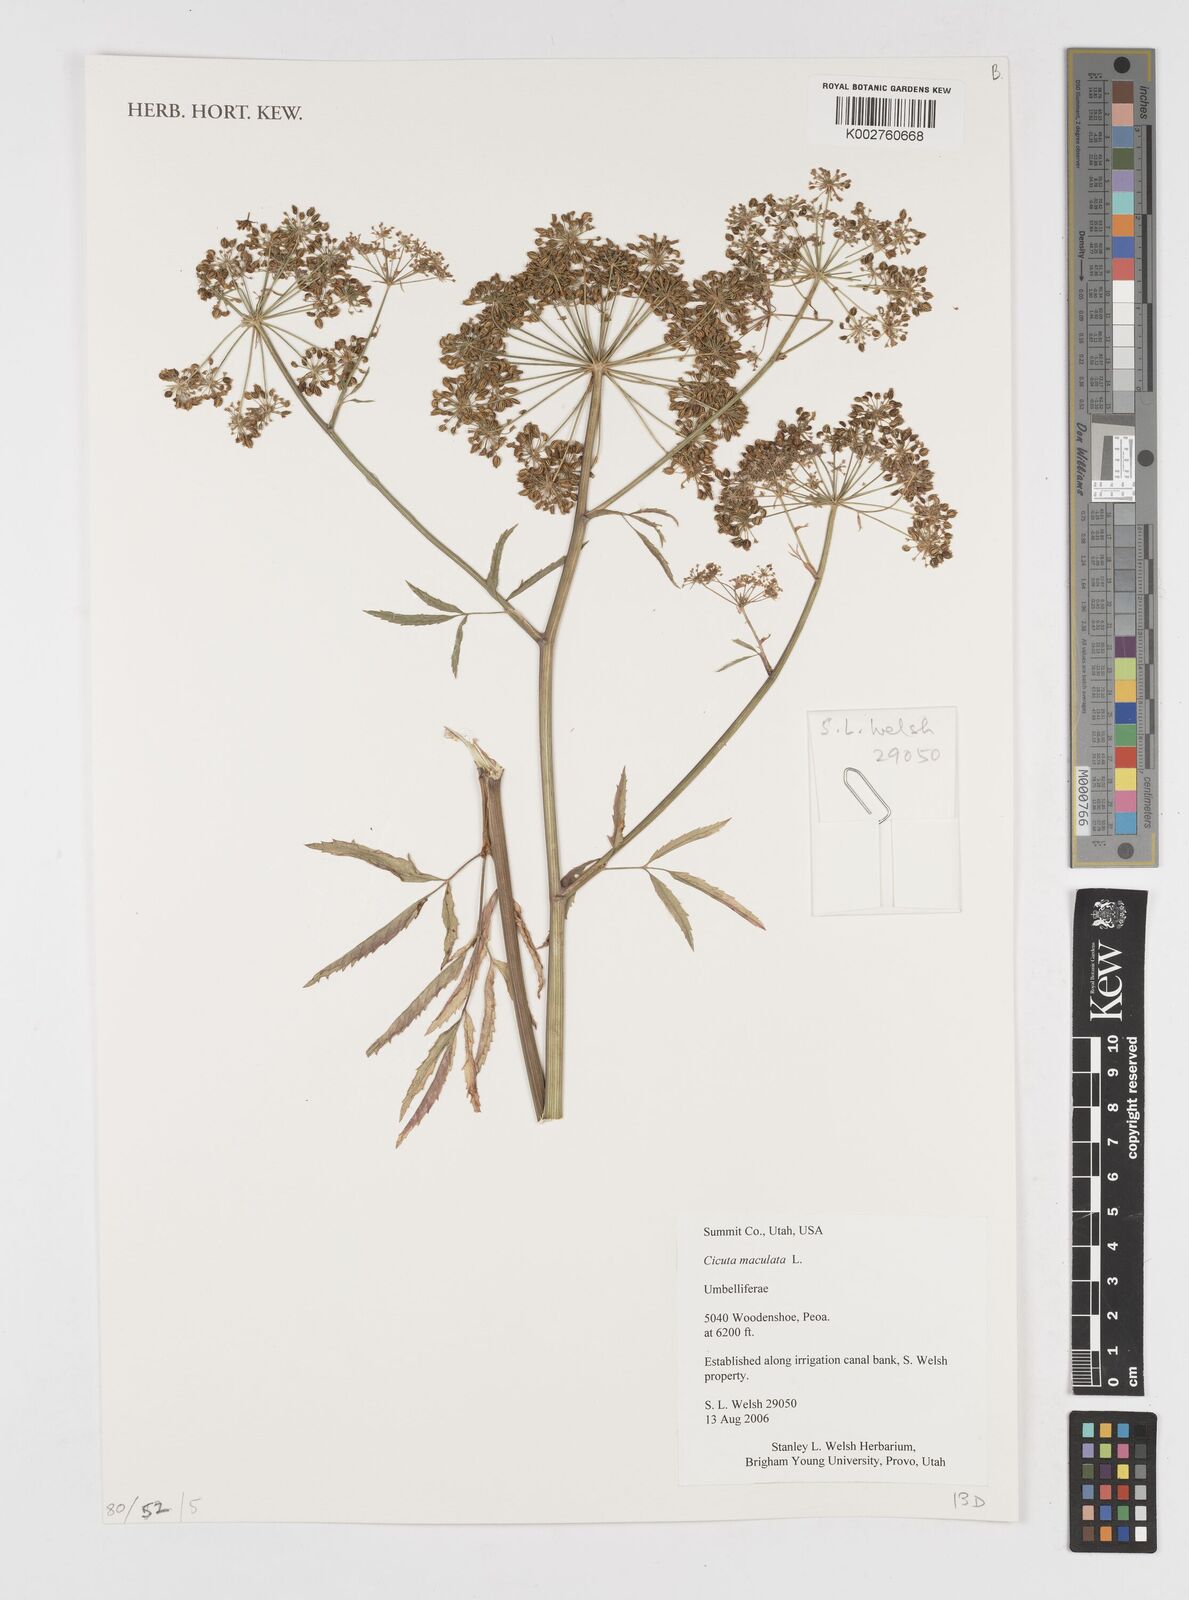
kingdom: Plantae
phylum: Tracheophyta
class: Magnoliopsida
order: Apiales
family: Apiaceae
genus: Cicuta
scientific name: Cicuta maculata
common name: Spotted cowbane
